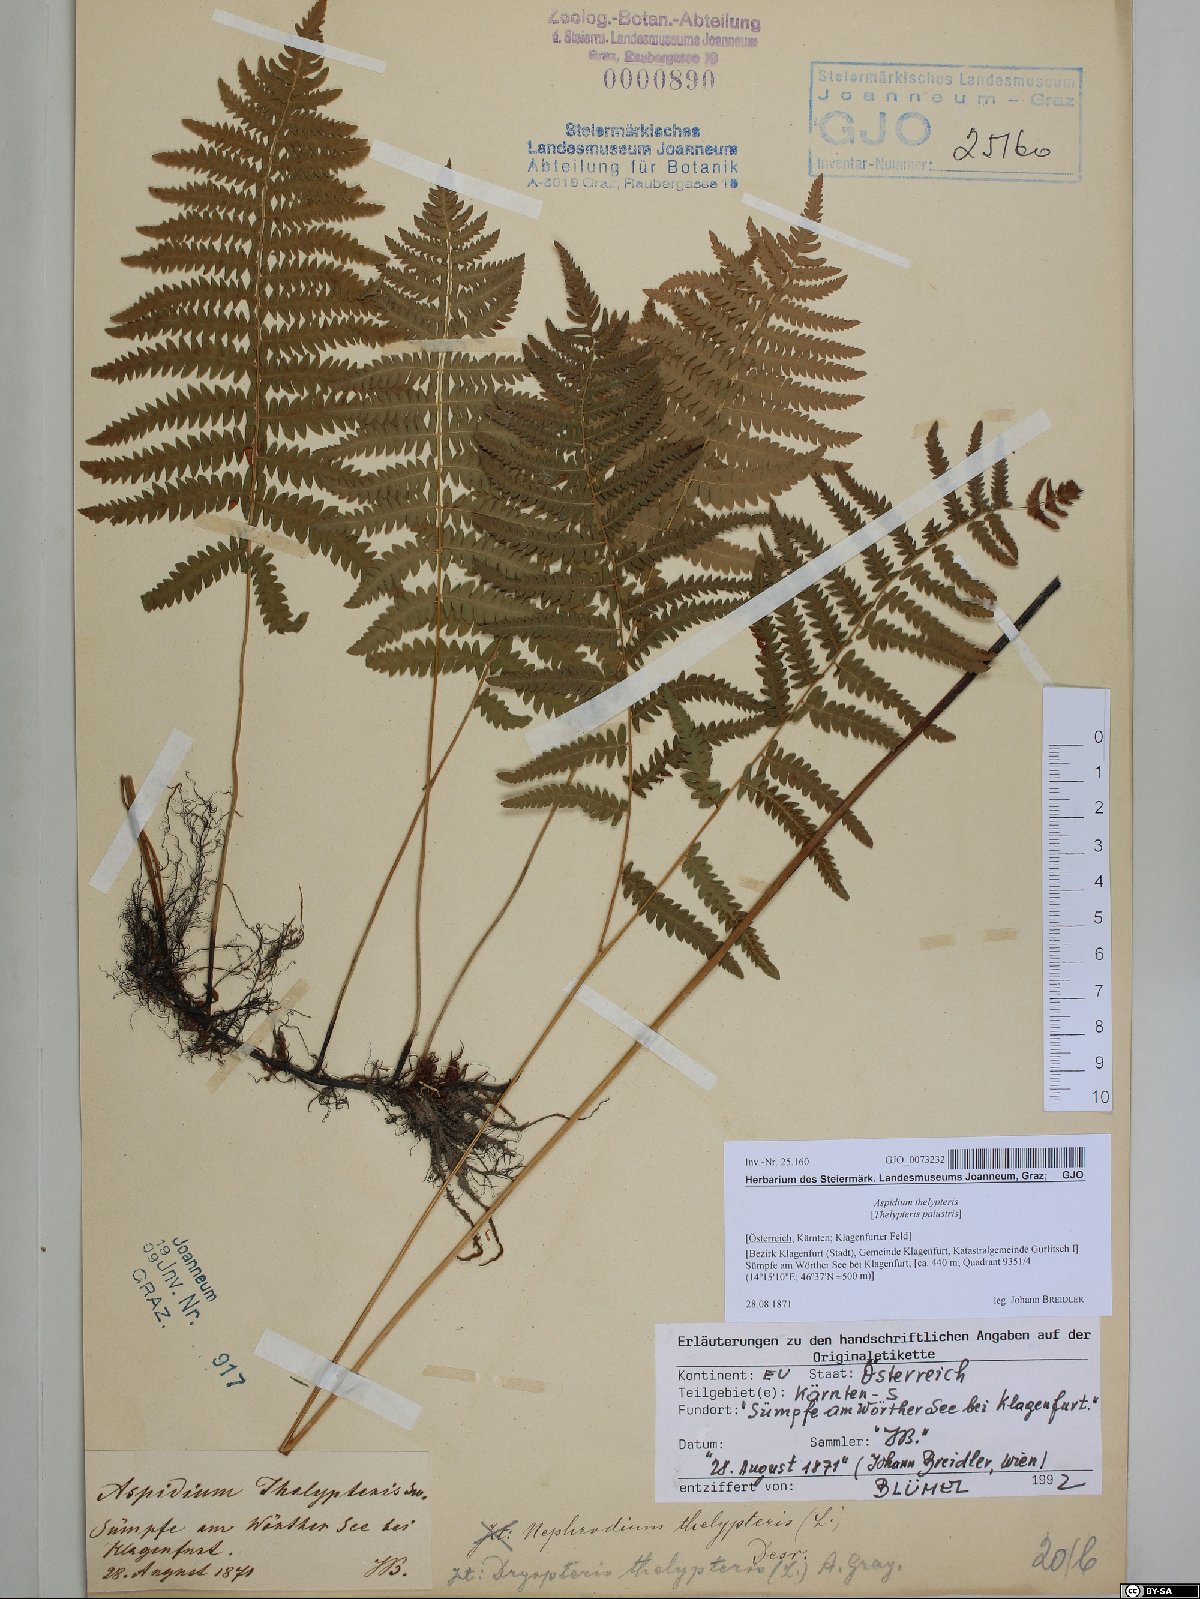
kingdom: Plantae
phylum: Tracheophyta
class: Polypodiopsida
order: Polypodiales
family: Thelypteridaceae
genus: Thelypteris
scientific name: Thelypteris palustris
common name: Marsh fern
